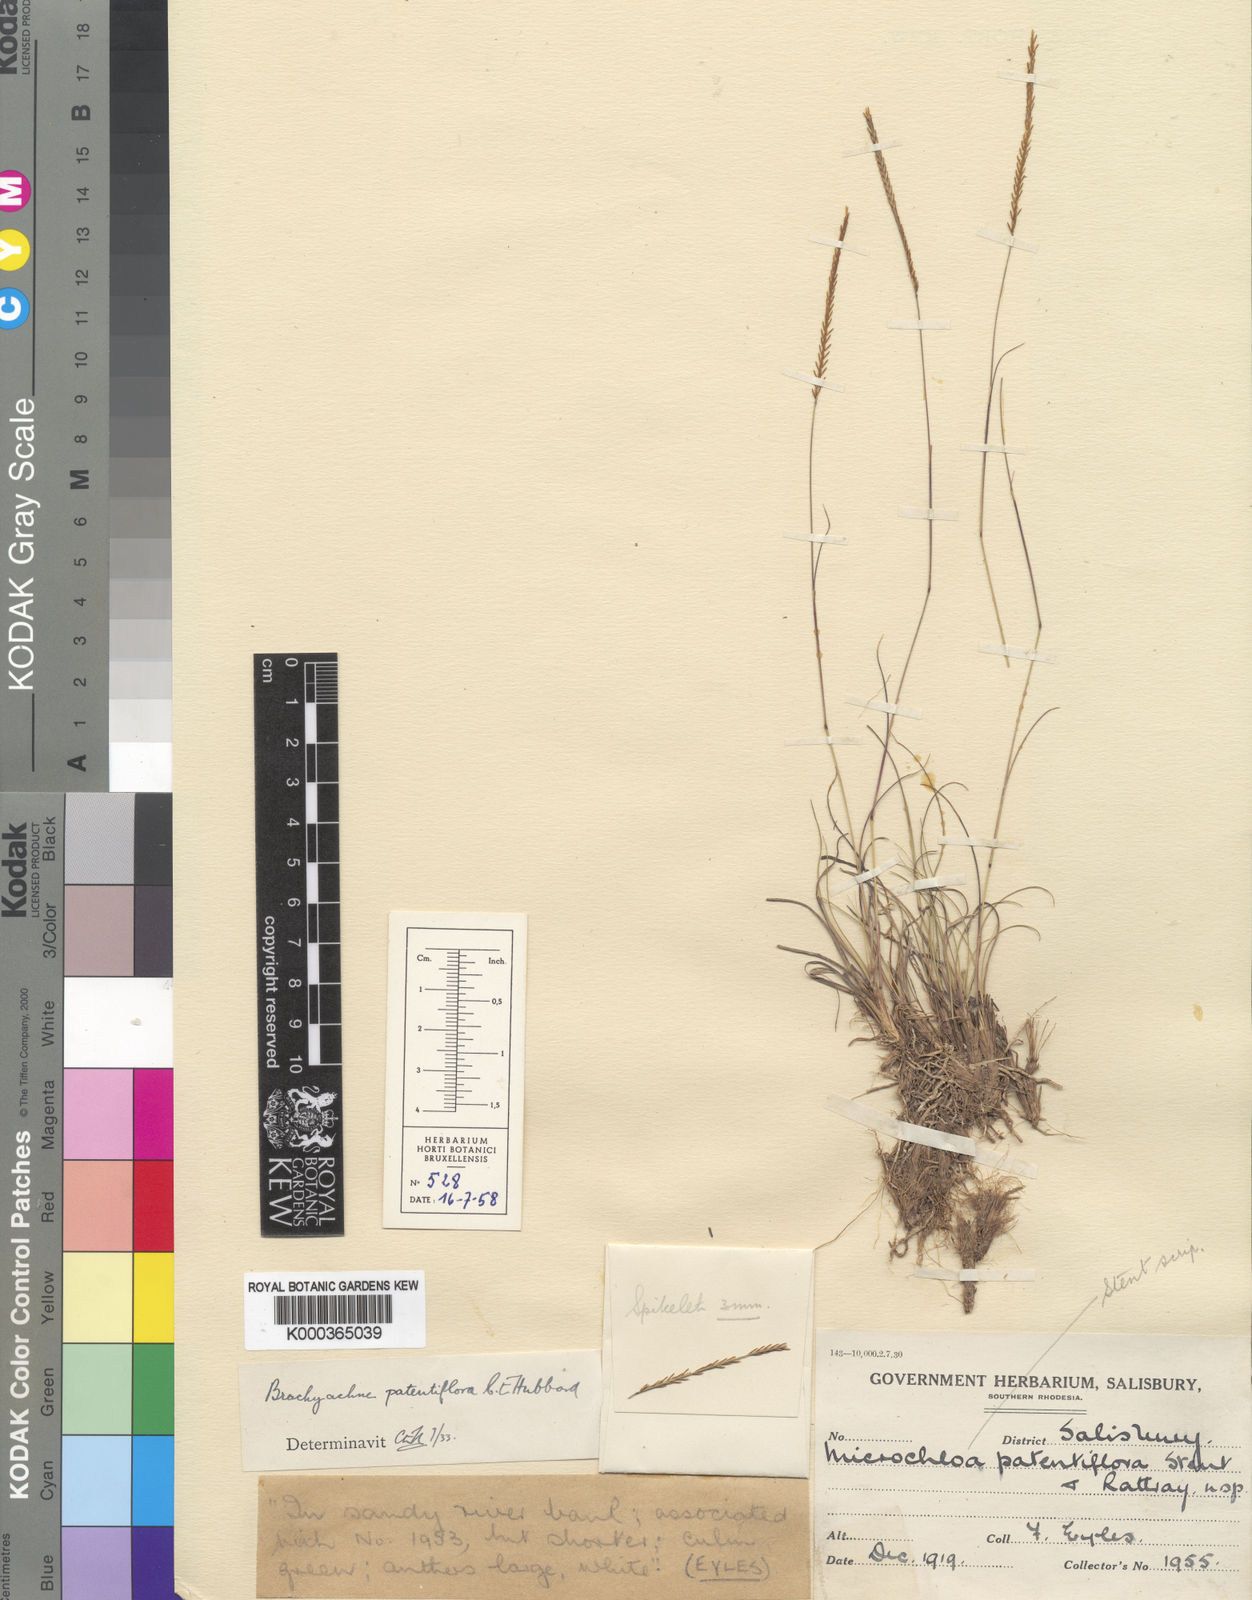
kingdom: Plantae
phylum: Tracheophyta
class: Liliopsida
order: Poales
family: Poaceae
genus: Micrachne
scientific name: Micrachne patentiflora
